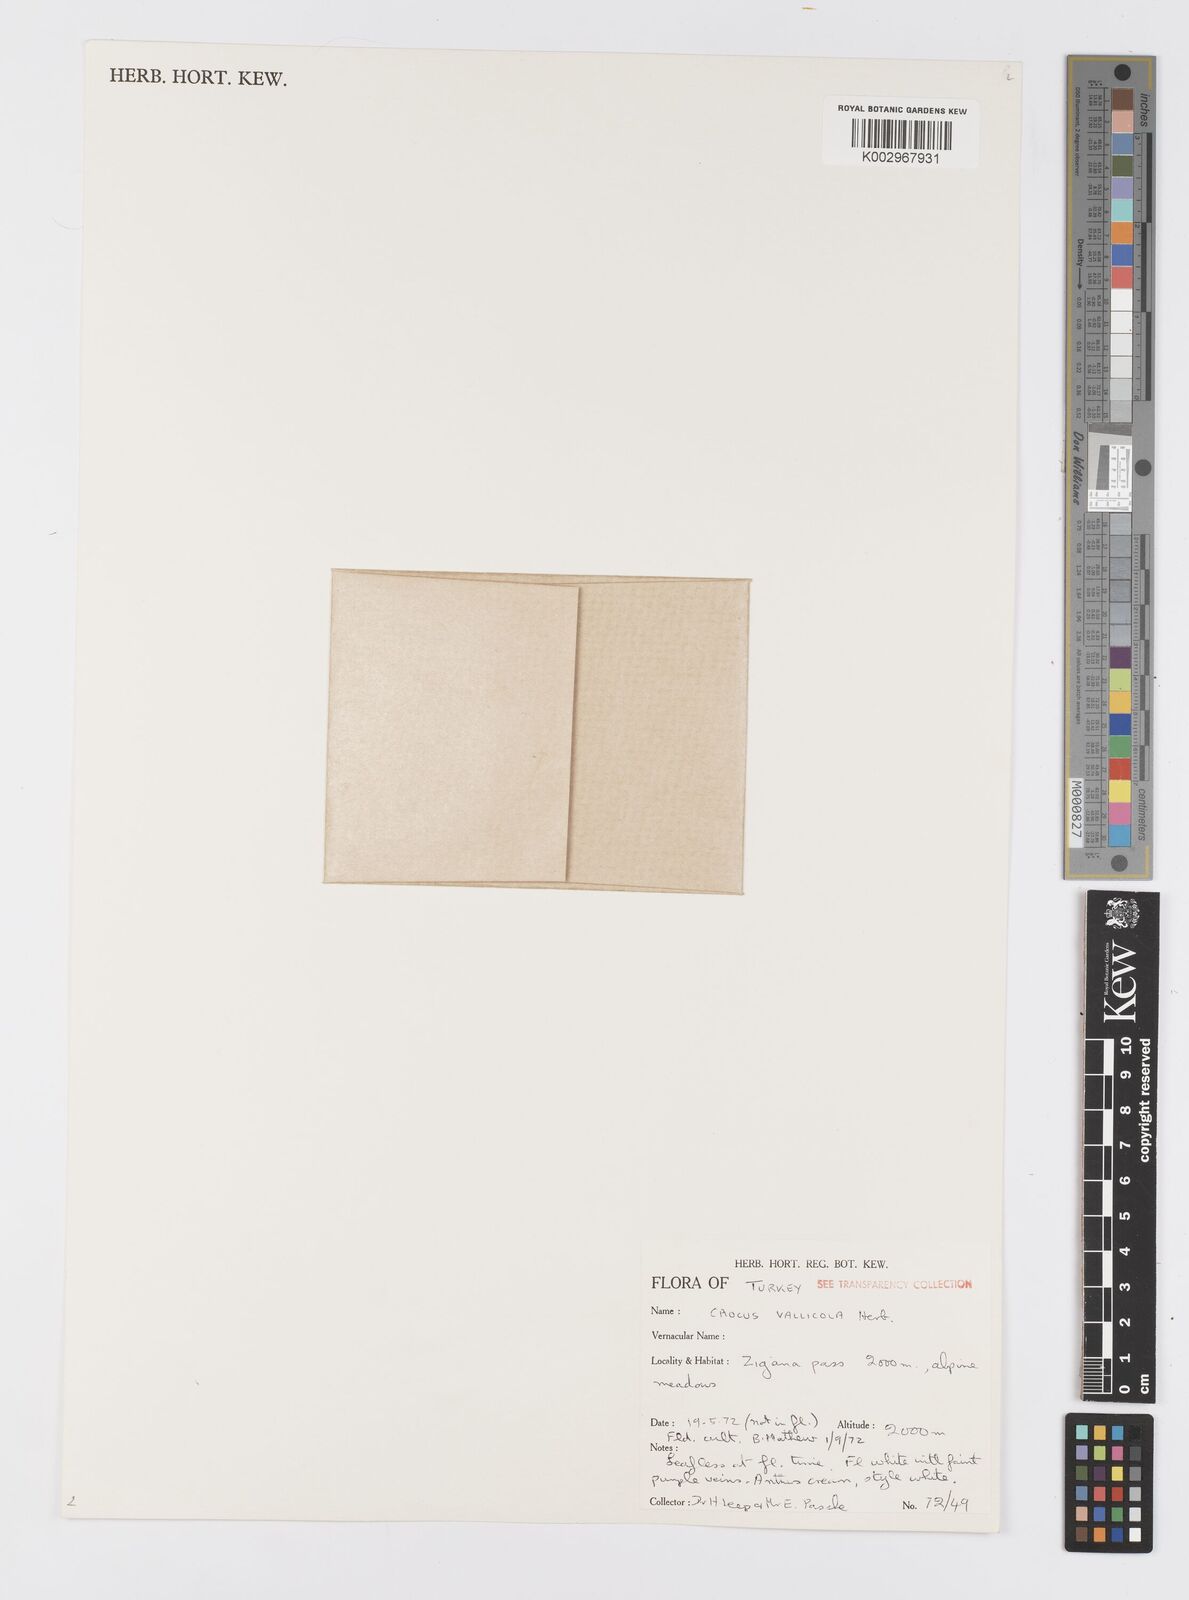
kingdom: Plantae
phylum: Tracheophyta
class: Liliopsida
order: Asparagales
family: Iridaceae
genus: Crocus
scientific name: Crocus vallicola
